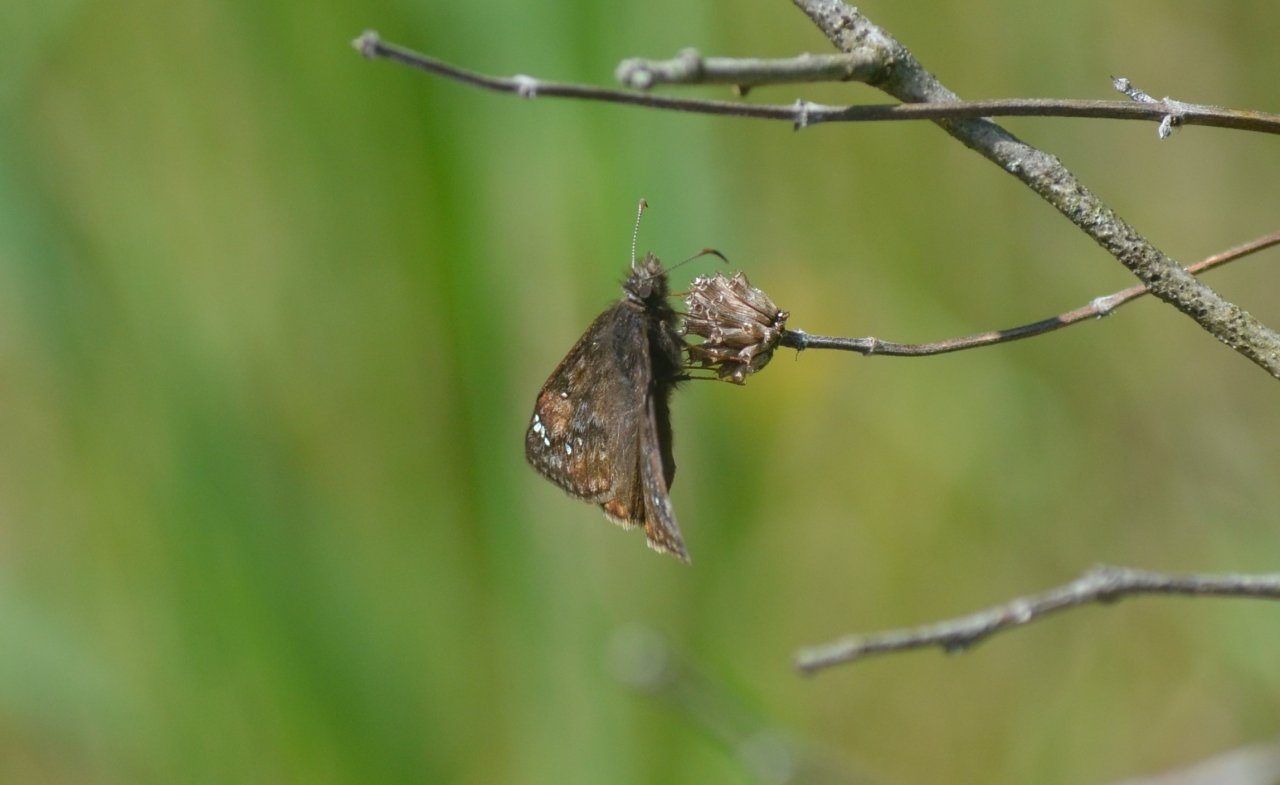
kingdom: Animalia
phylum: Arthropoda
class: Insecta
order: Lepidoptera
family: Hesperiidae
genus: Gesta
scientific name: Gesta
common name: Juvenal's Duskywing
